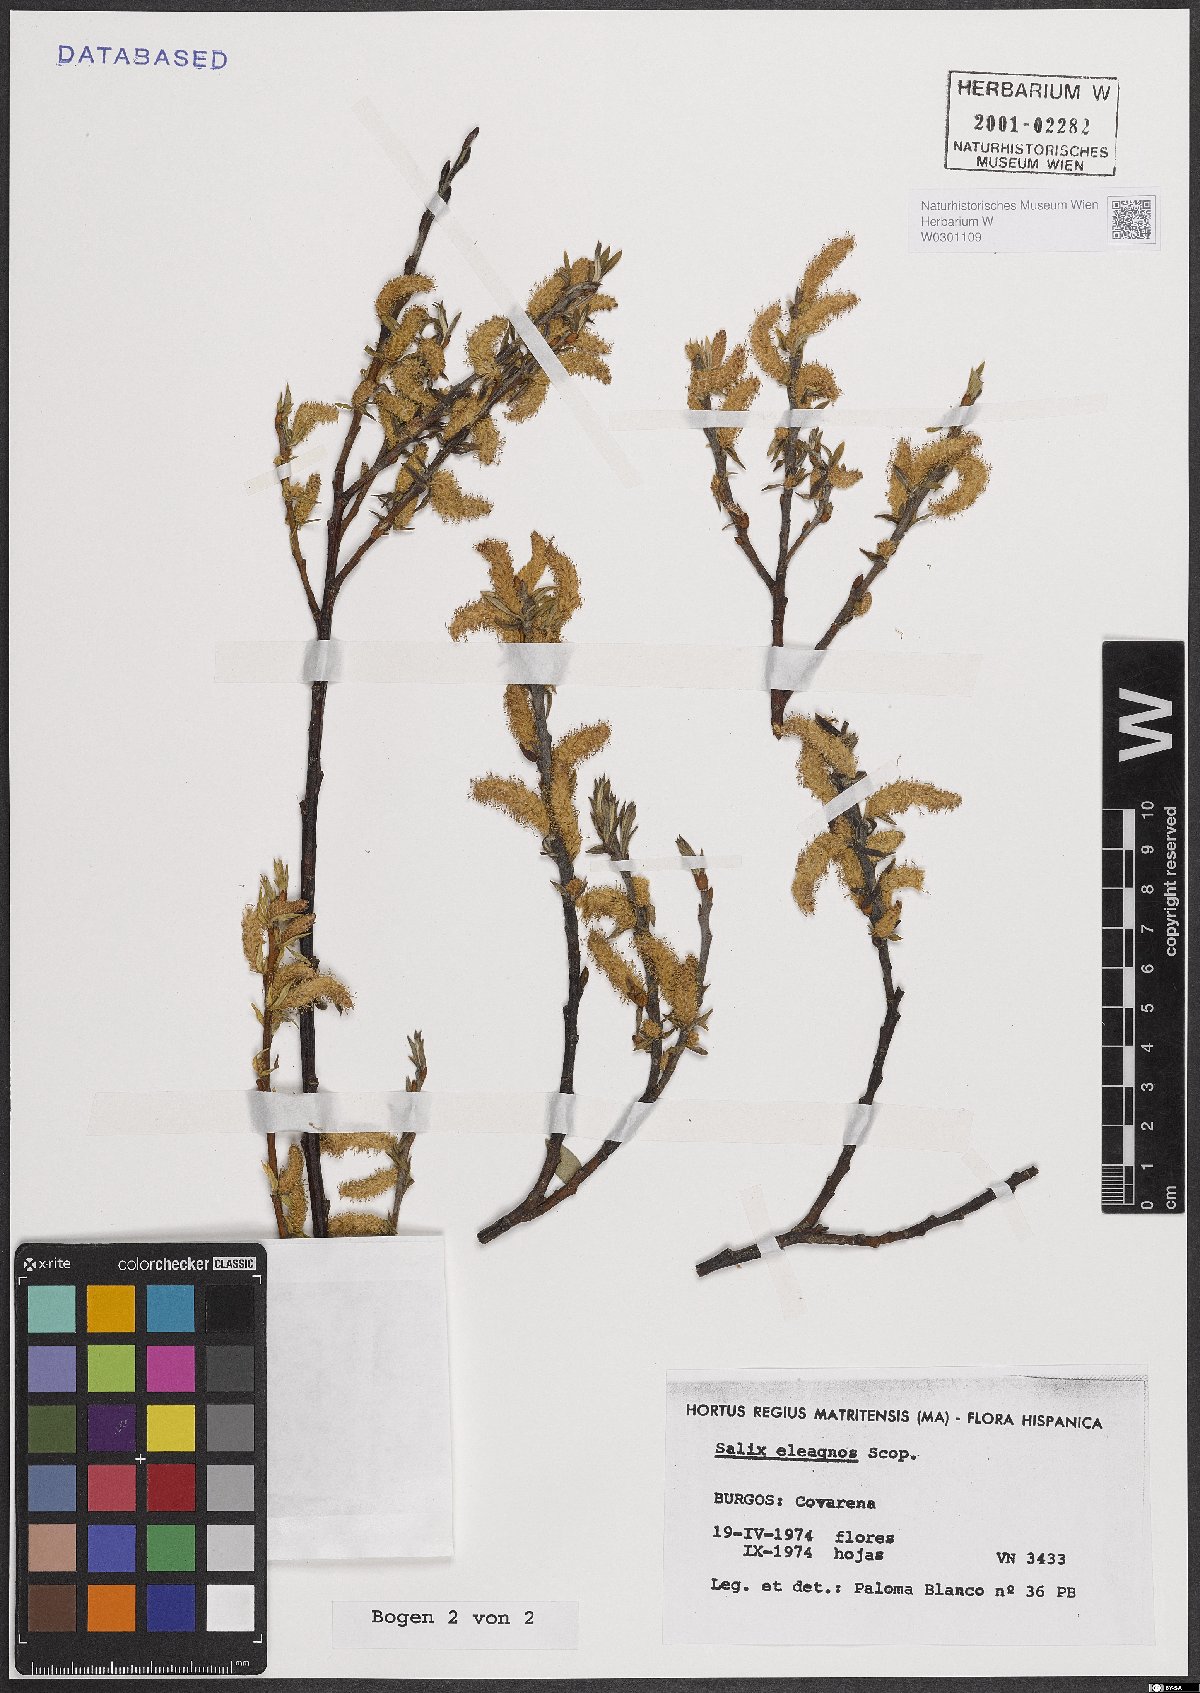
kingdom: Plantae
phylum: Tracheophyta
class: Magnoliopsida
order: Malpighiales
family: Salicaceae
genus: Salix
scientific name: Salix eleagnos
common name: Elaeagnus willow
